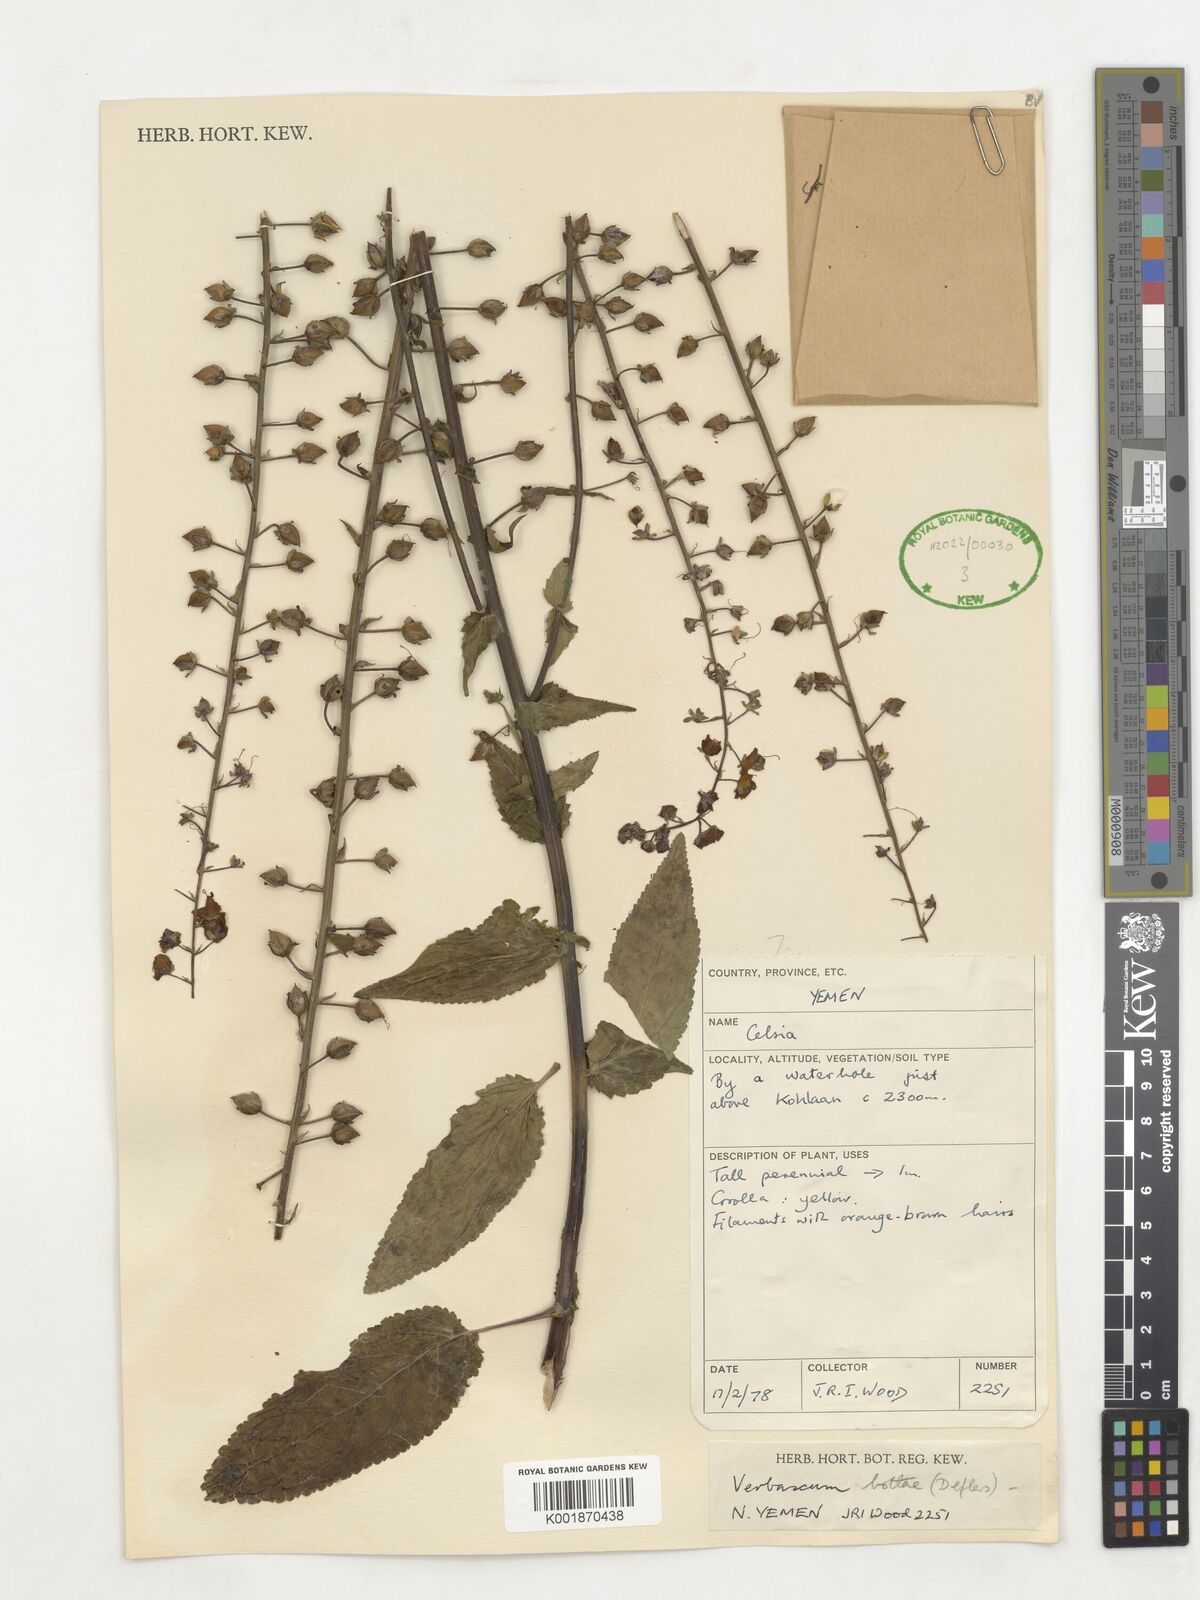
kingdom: Plantae
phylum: Tracheophyta
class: Magnoliopsida
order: Lamiales
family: Scrophulariaceae
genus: Rhabdotosperma
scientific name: Rhabdotosperma bottae
